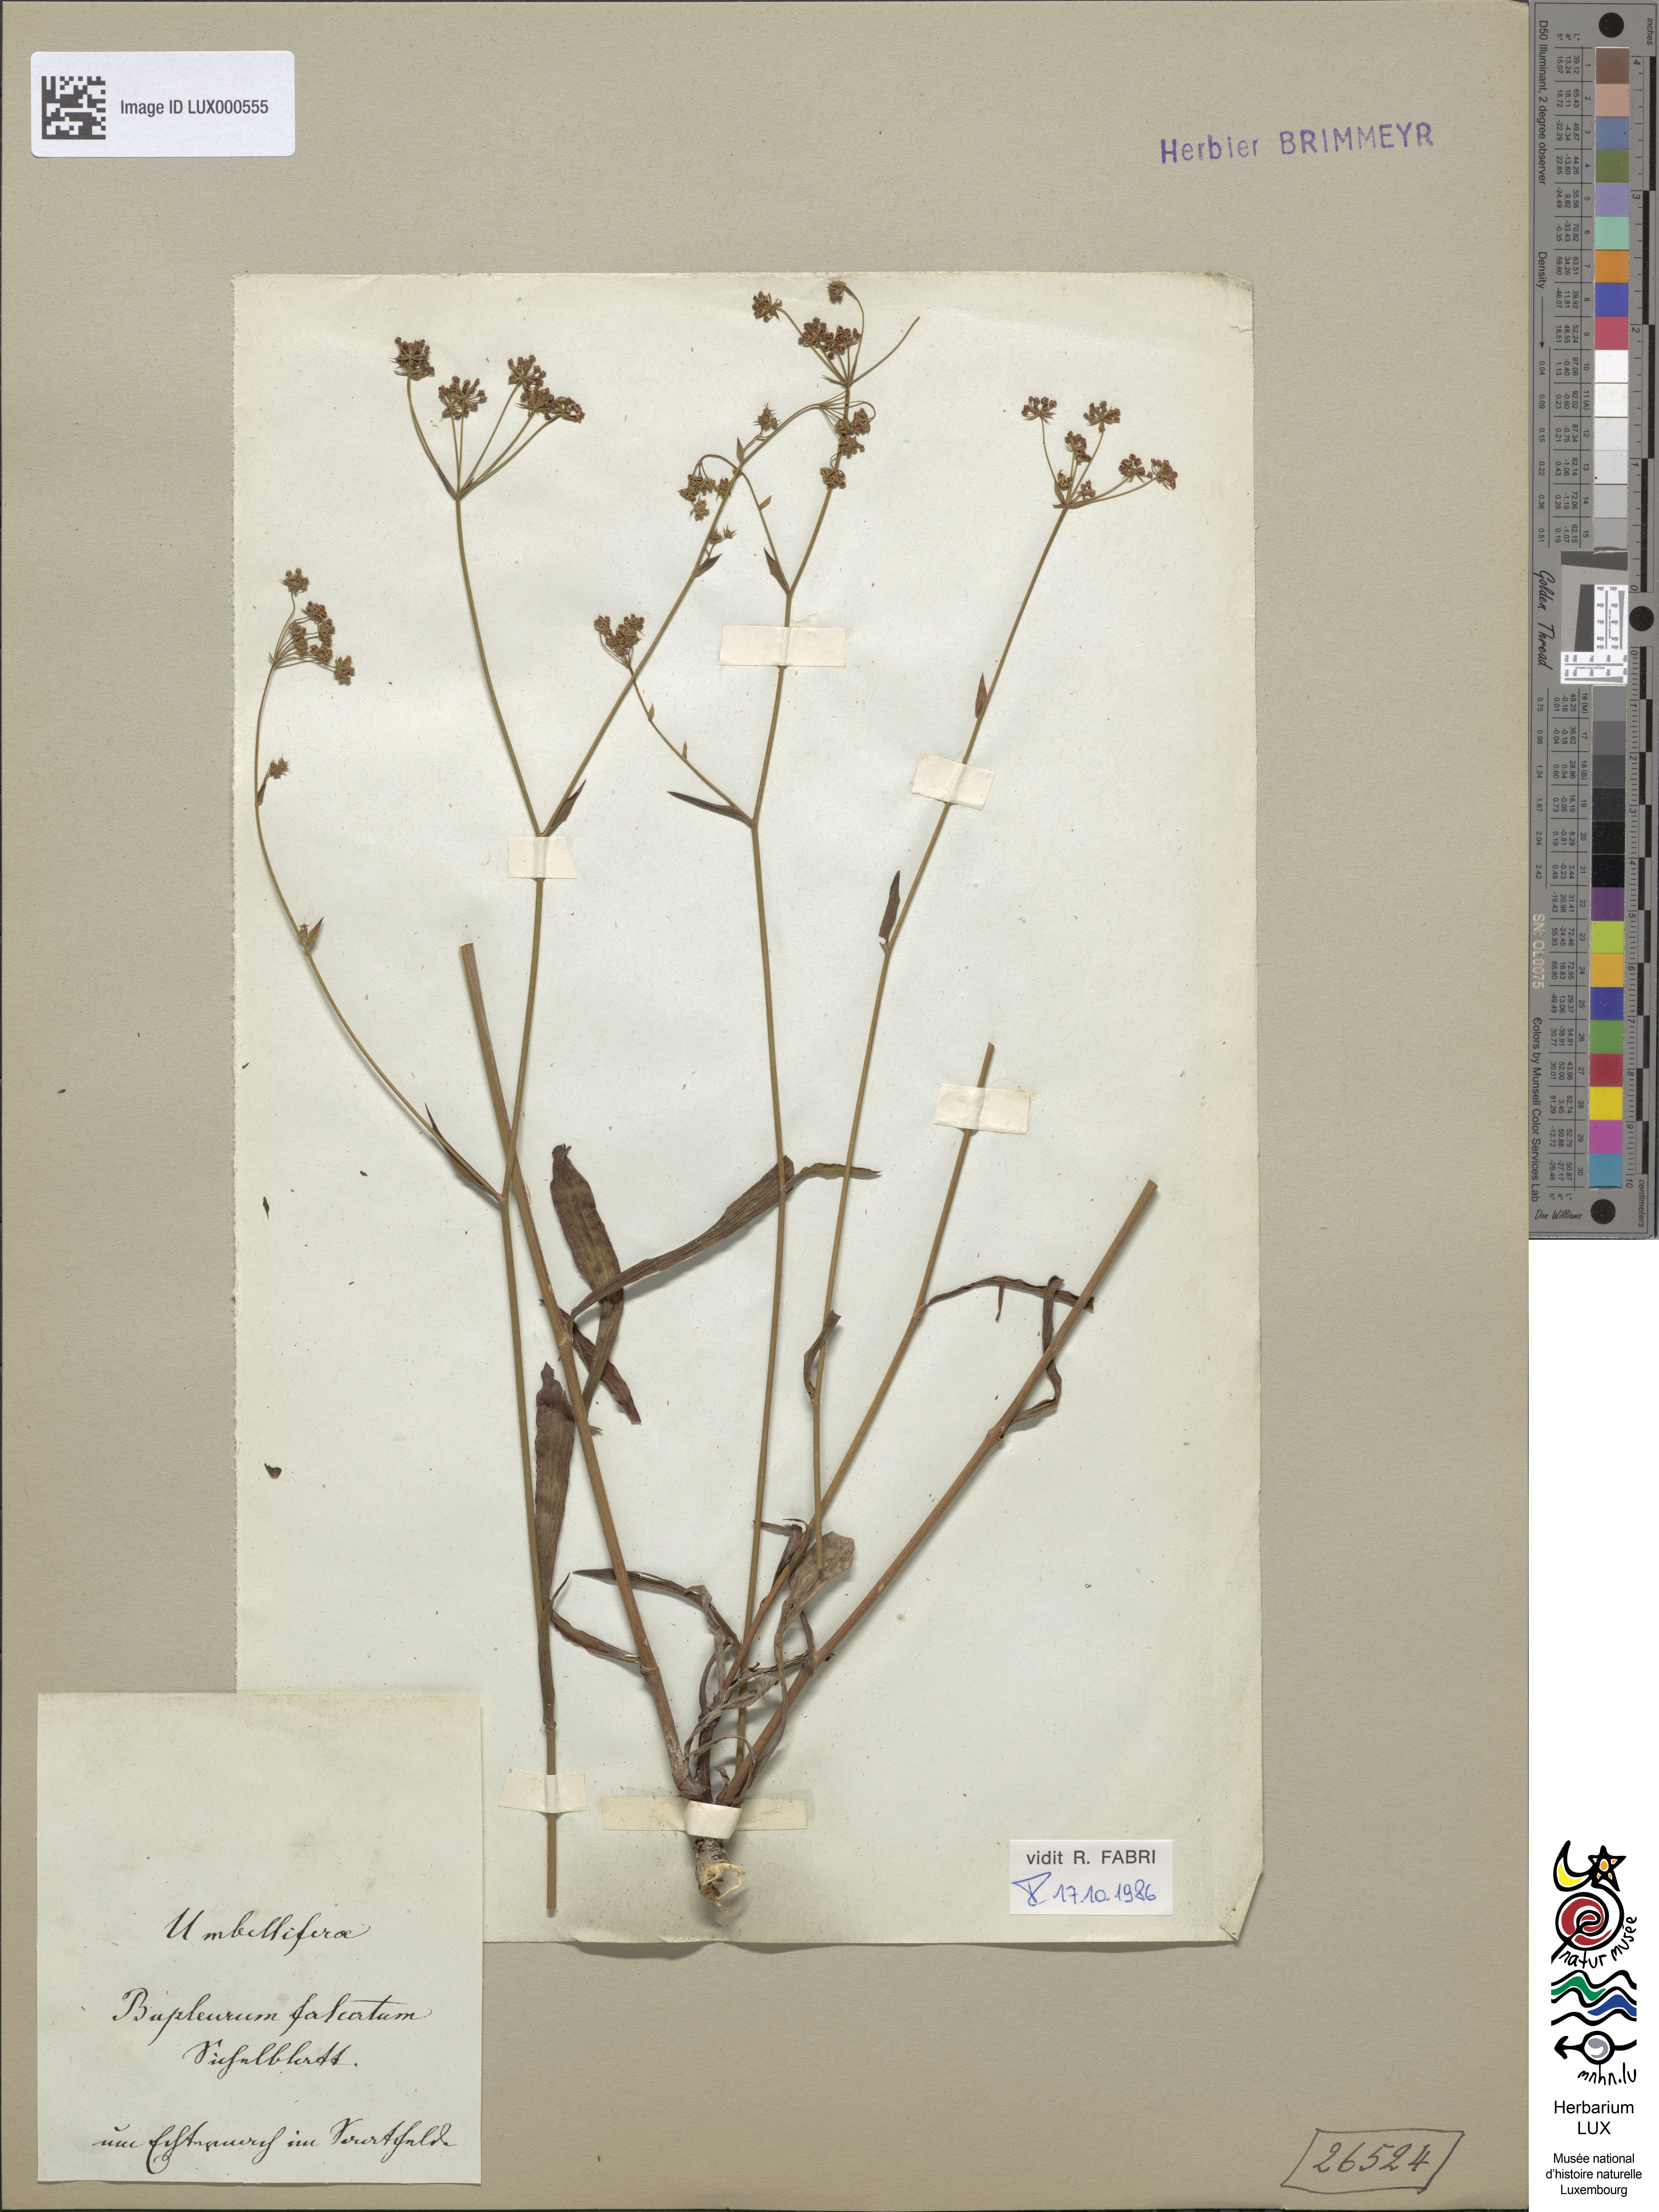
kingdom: Plantae
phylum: Tracheophyta
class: Magnoliopsida
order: Apiales
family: Apiaceae
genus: Bupleurum
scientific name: Bupleurum falcatum
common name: Sickle-leaved hare's-ear
